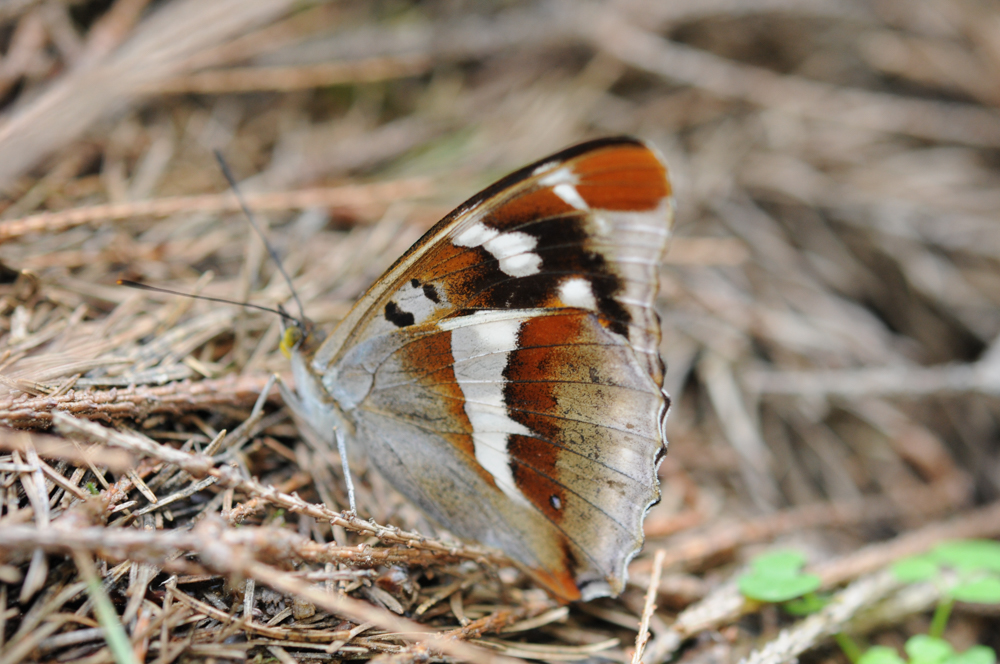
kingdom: Animalia
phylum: Arthropoda
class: Insecta
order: Lepidoptera
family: Nymphalidae
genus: Apatura
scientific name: Apatura iris
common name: Purple emperor
